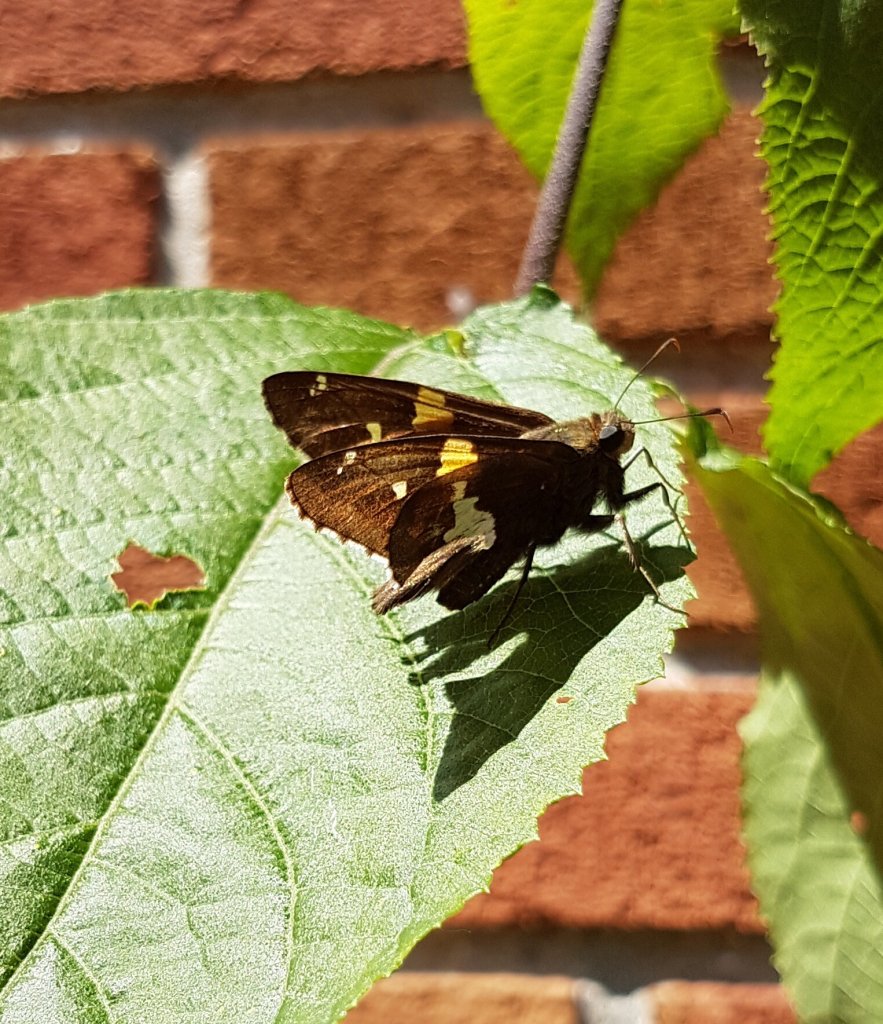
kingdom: Animalia
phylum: Arthropoda
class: Insecta
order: Lepidoptera
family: Hesperiidae
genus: Epargyreus
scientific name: Epargyreus clarus
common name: Silver-spotted Skipper
